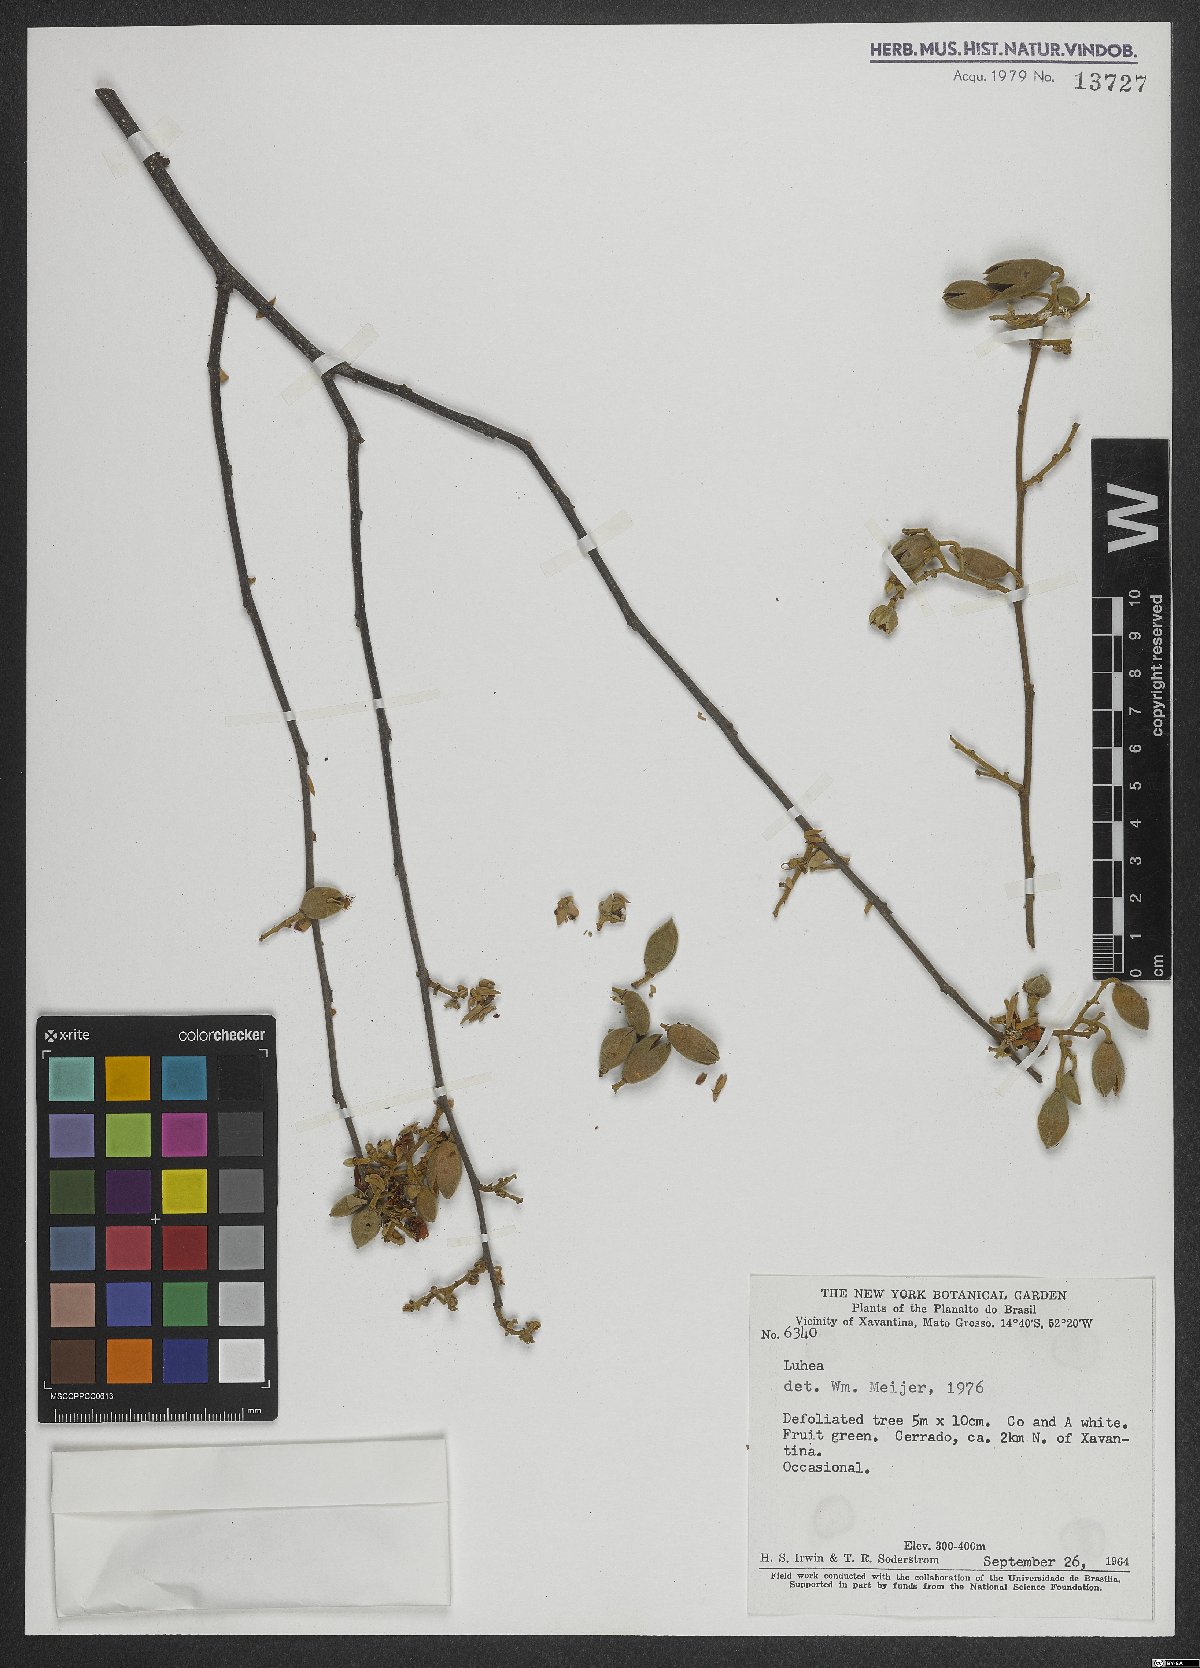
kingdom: Plantae
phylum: Tracheophyta
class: Magnoliopsida
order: Malvales
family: Malvaceae
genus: Luehea
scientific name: Luehea
